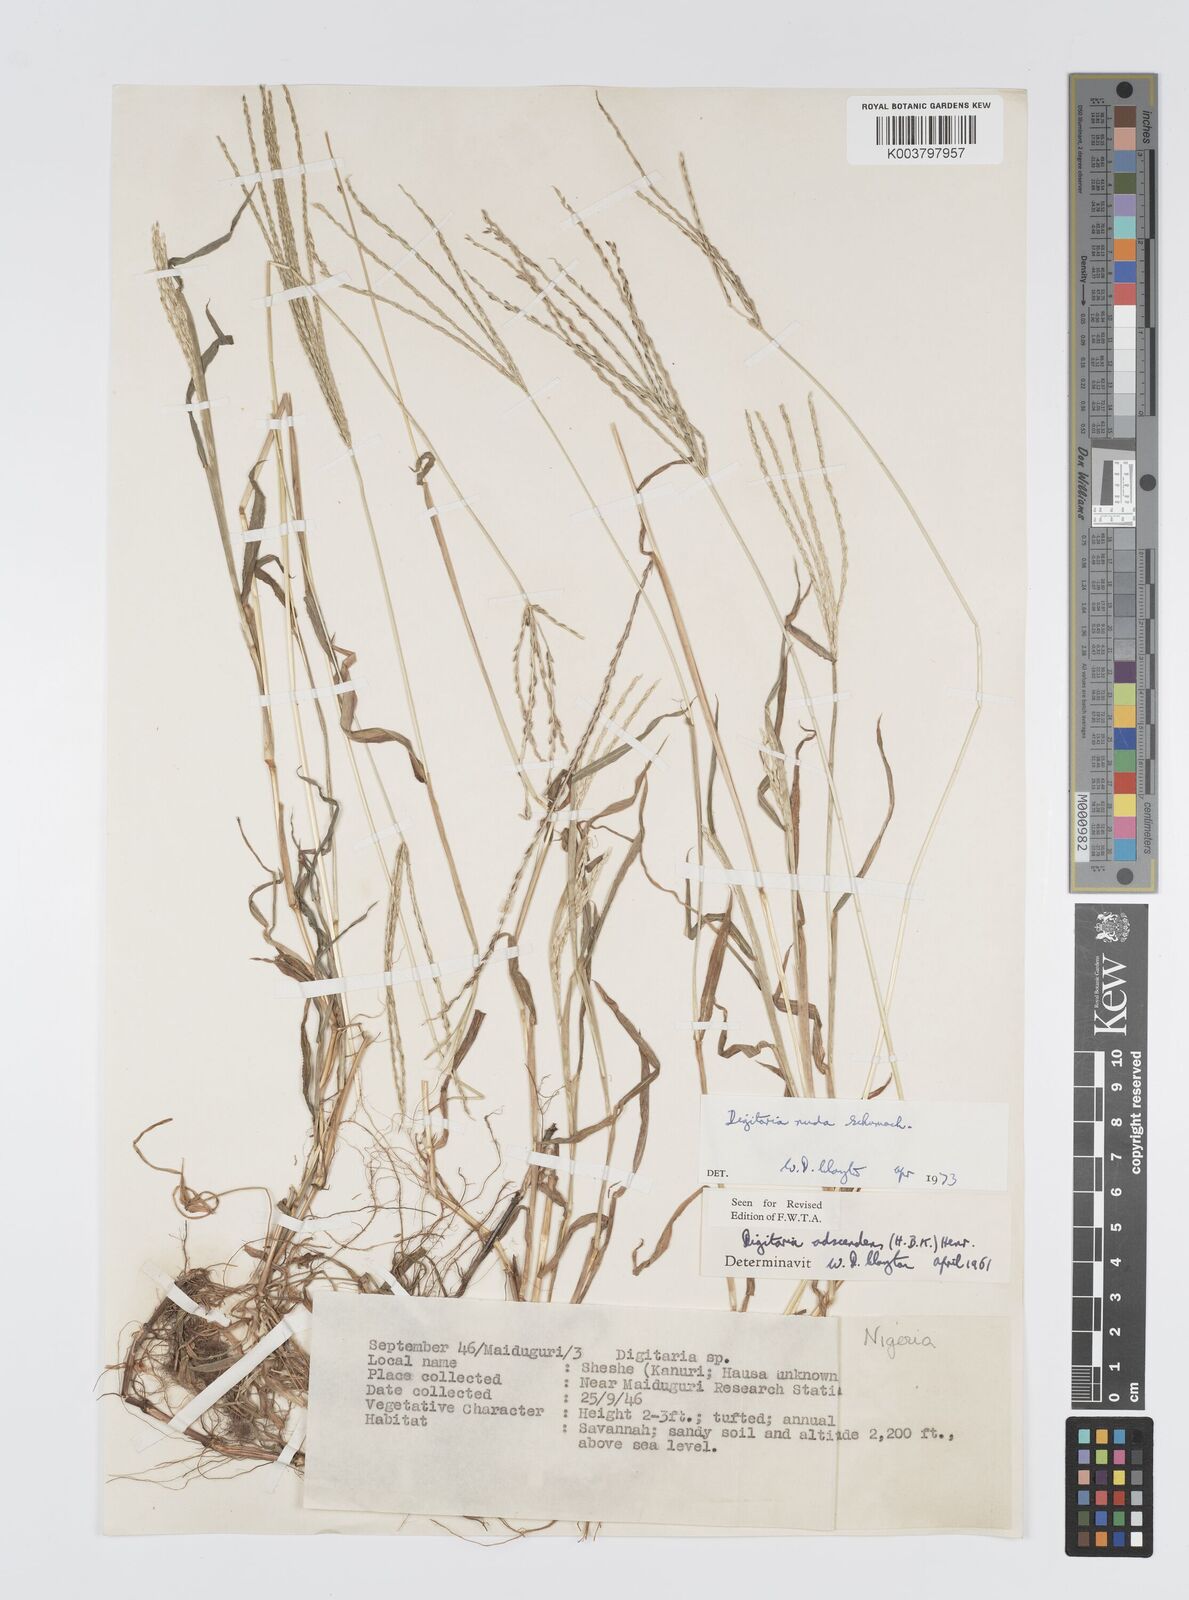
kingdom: Plantae
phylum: Tracheophyta
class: Liliopsida
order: Poales
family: Poaceae
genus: Digitaria
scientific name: Digitaria nuda
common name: Naked crabgrass
